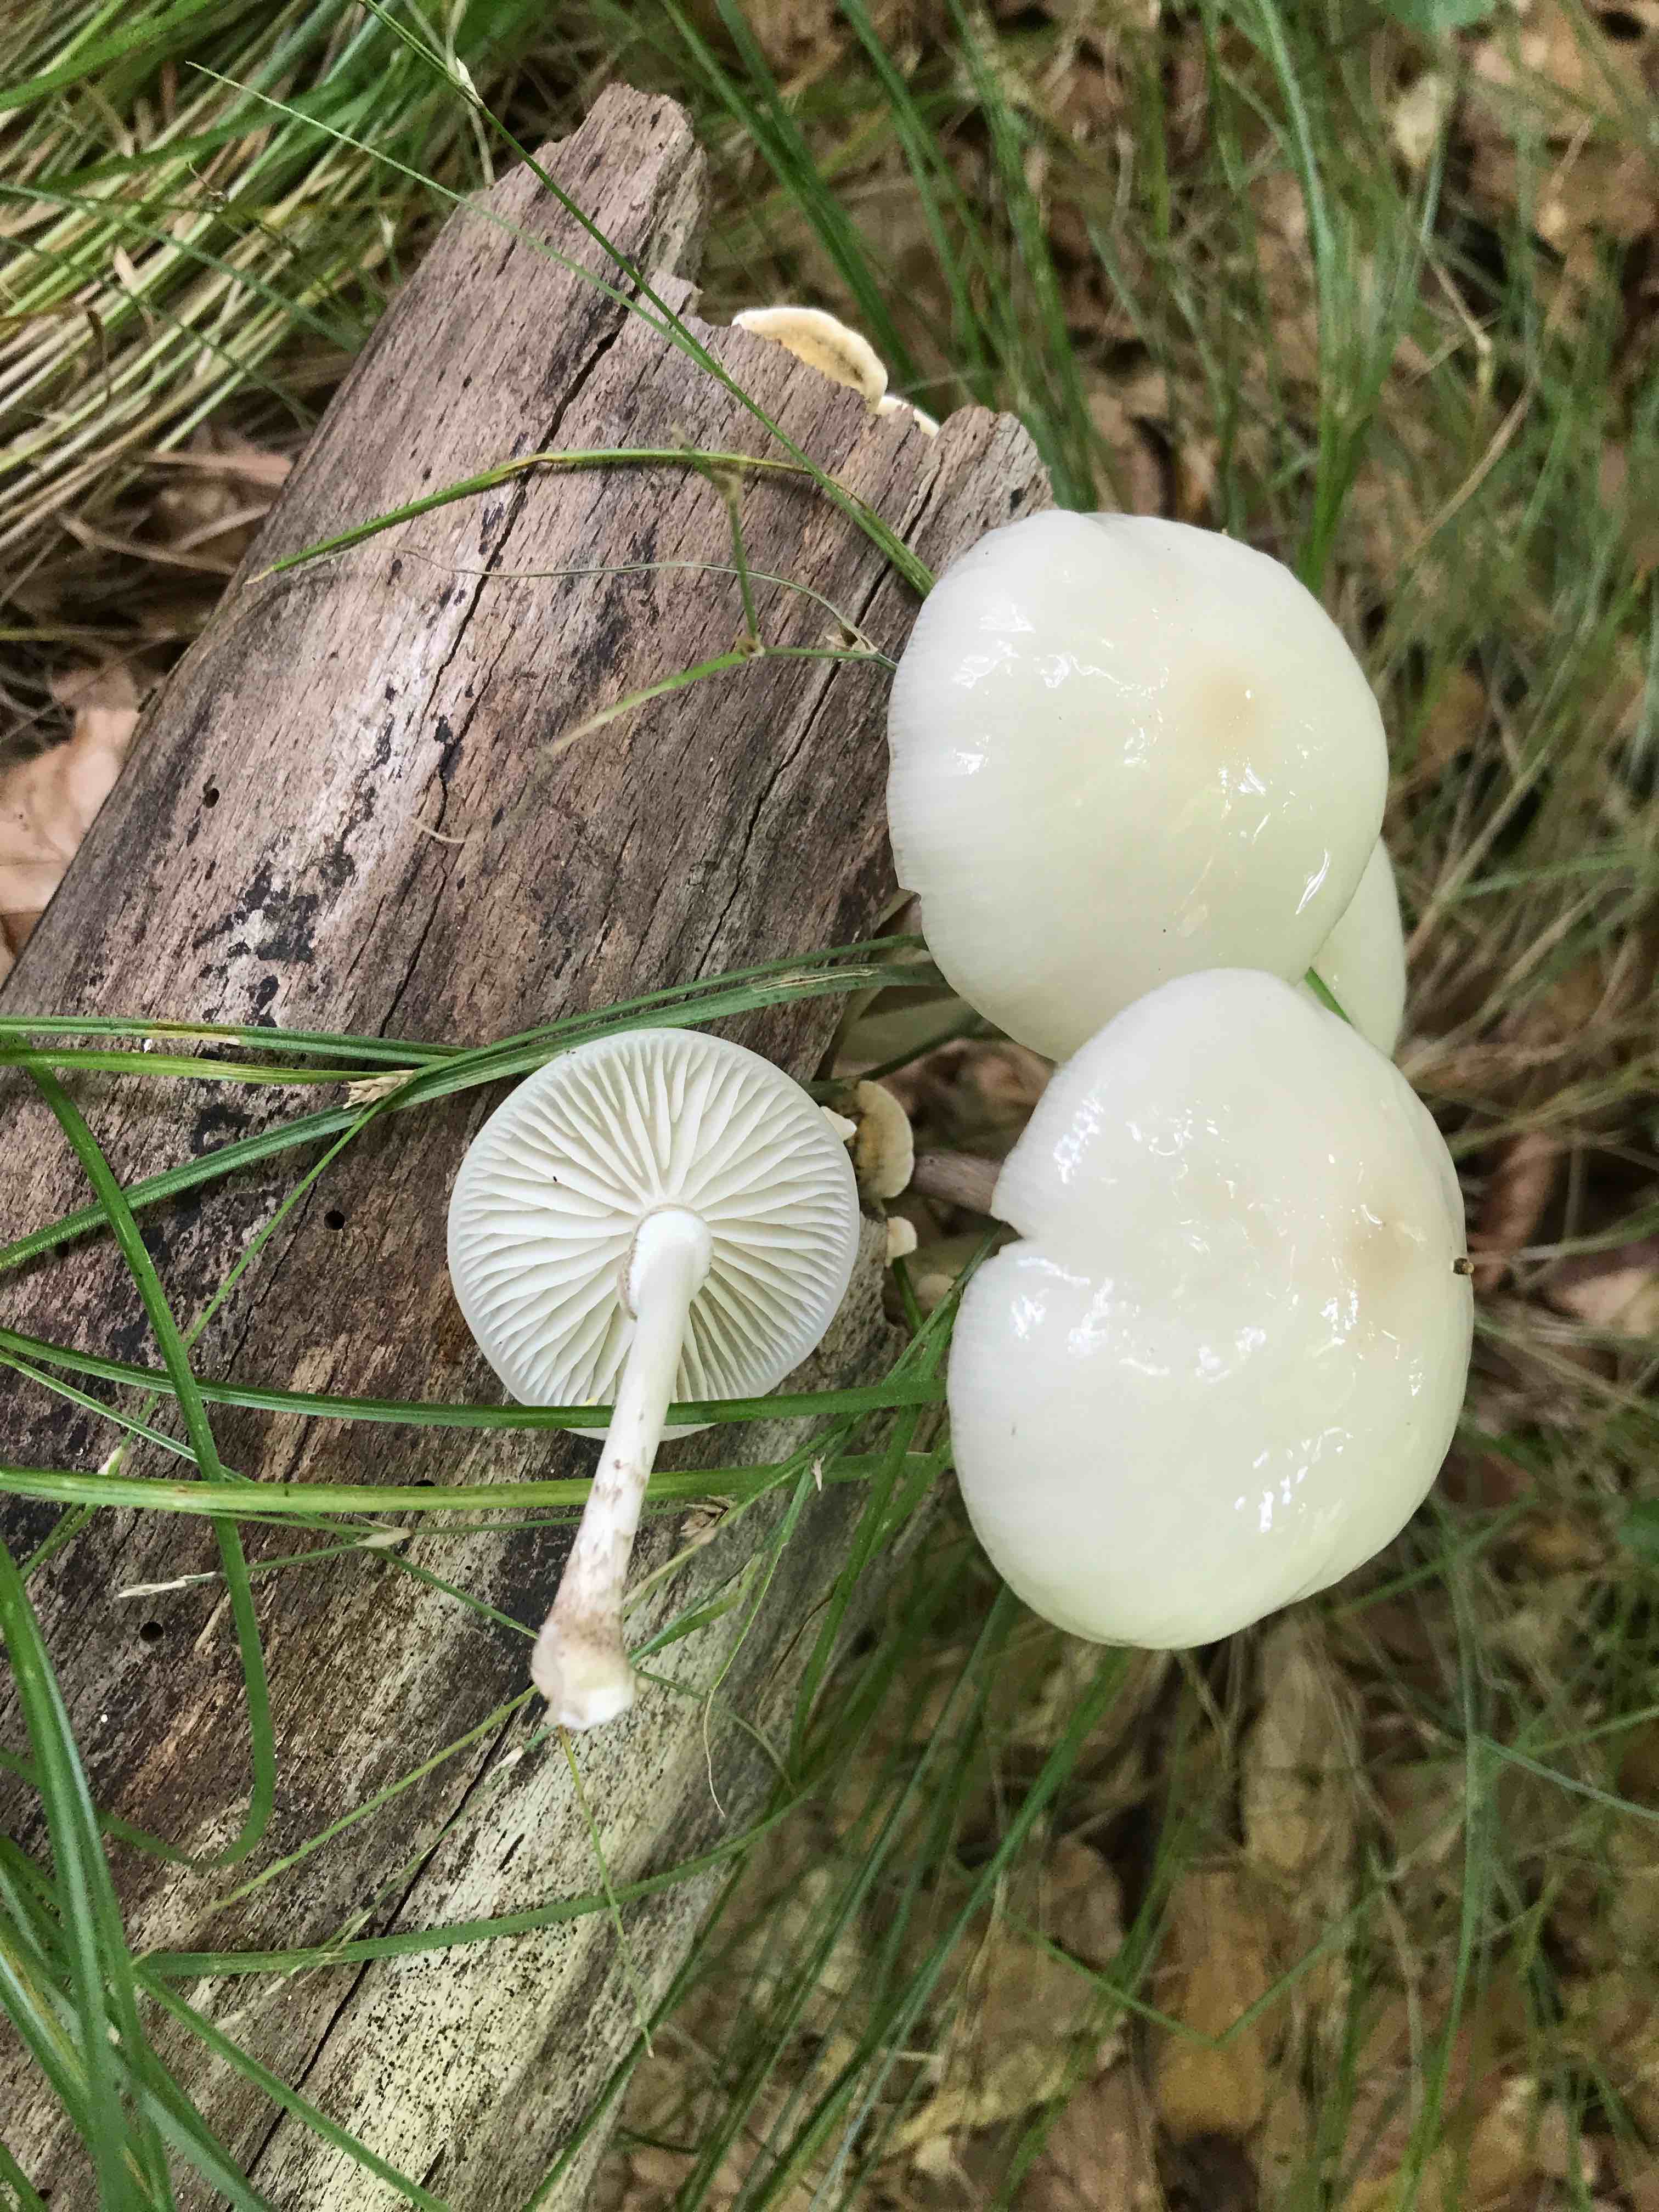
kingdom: Fungi
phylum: Basidiomycota
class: Agaricomycetes
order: Agaricales
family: Physalacriaceae
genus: Mucidula
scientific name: Mucidula mucida
